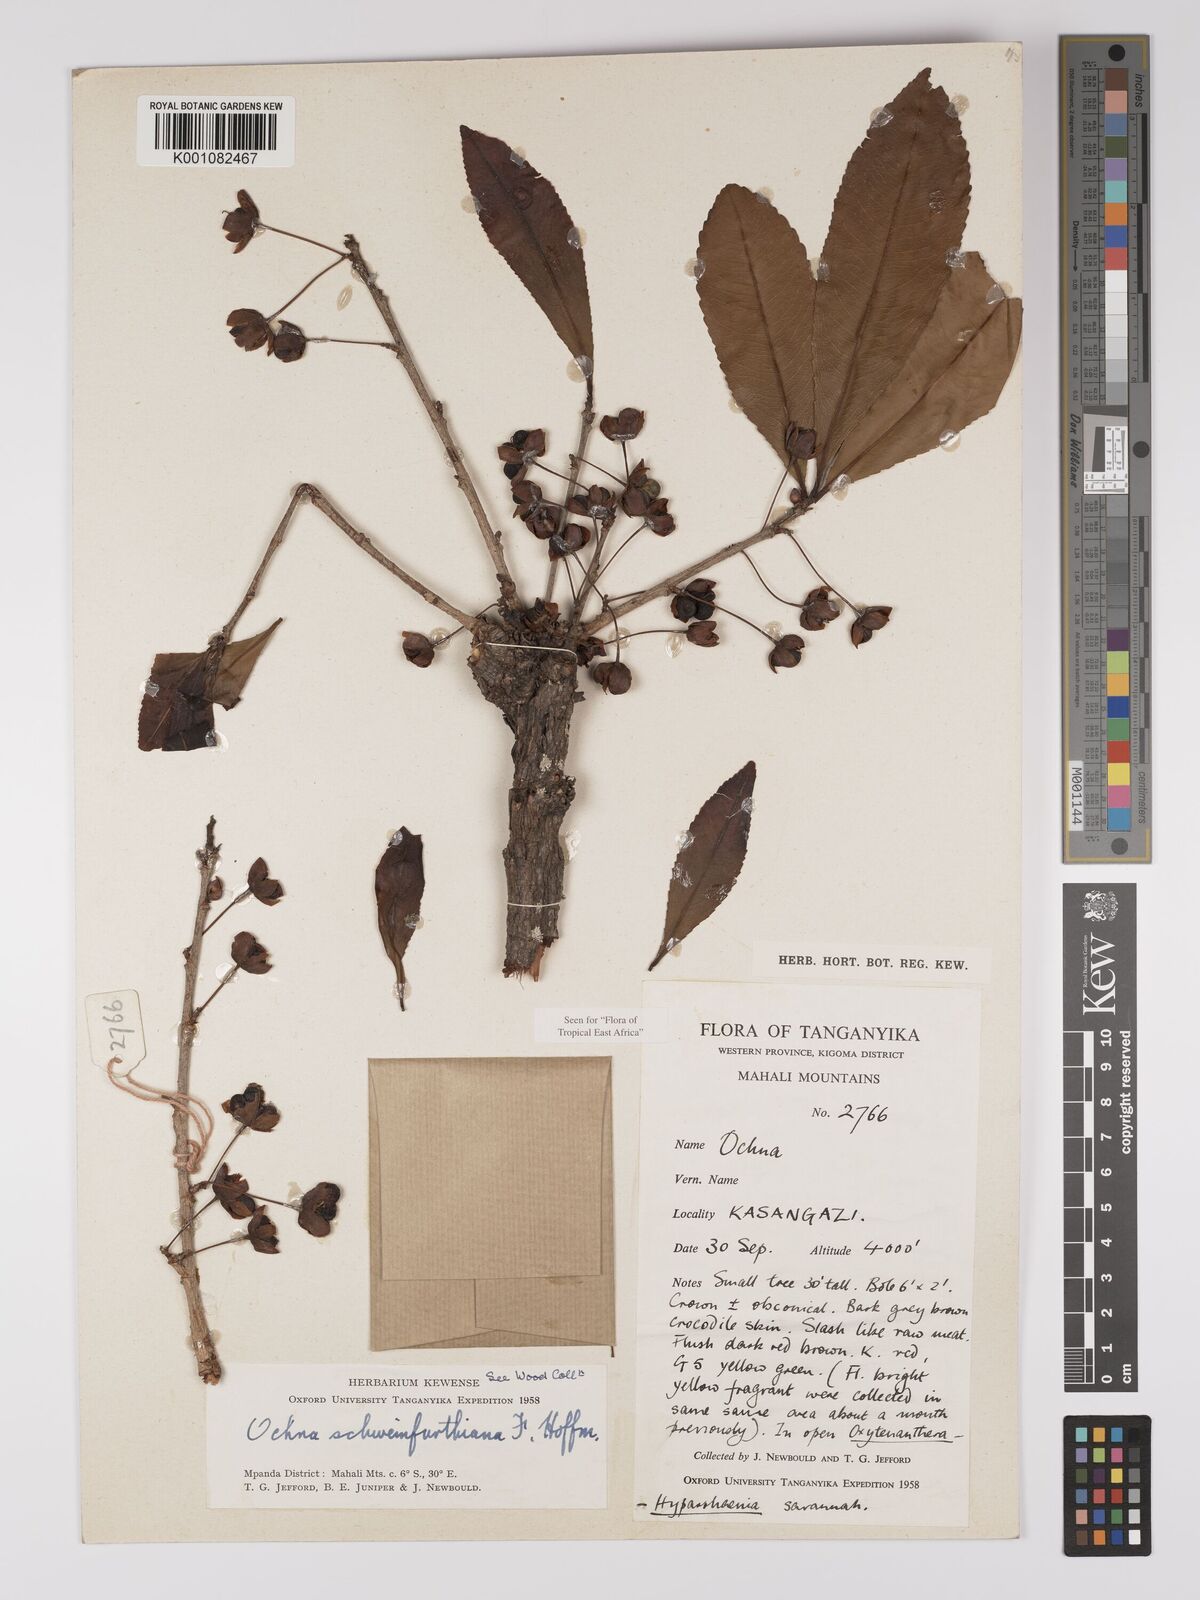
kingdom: Plantae
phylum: Tracheophyta
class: Magnoliopsida
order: Malpighiales
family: Ochnaceae
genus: Ochna
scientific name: Ochna schweinfurthiana
